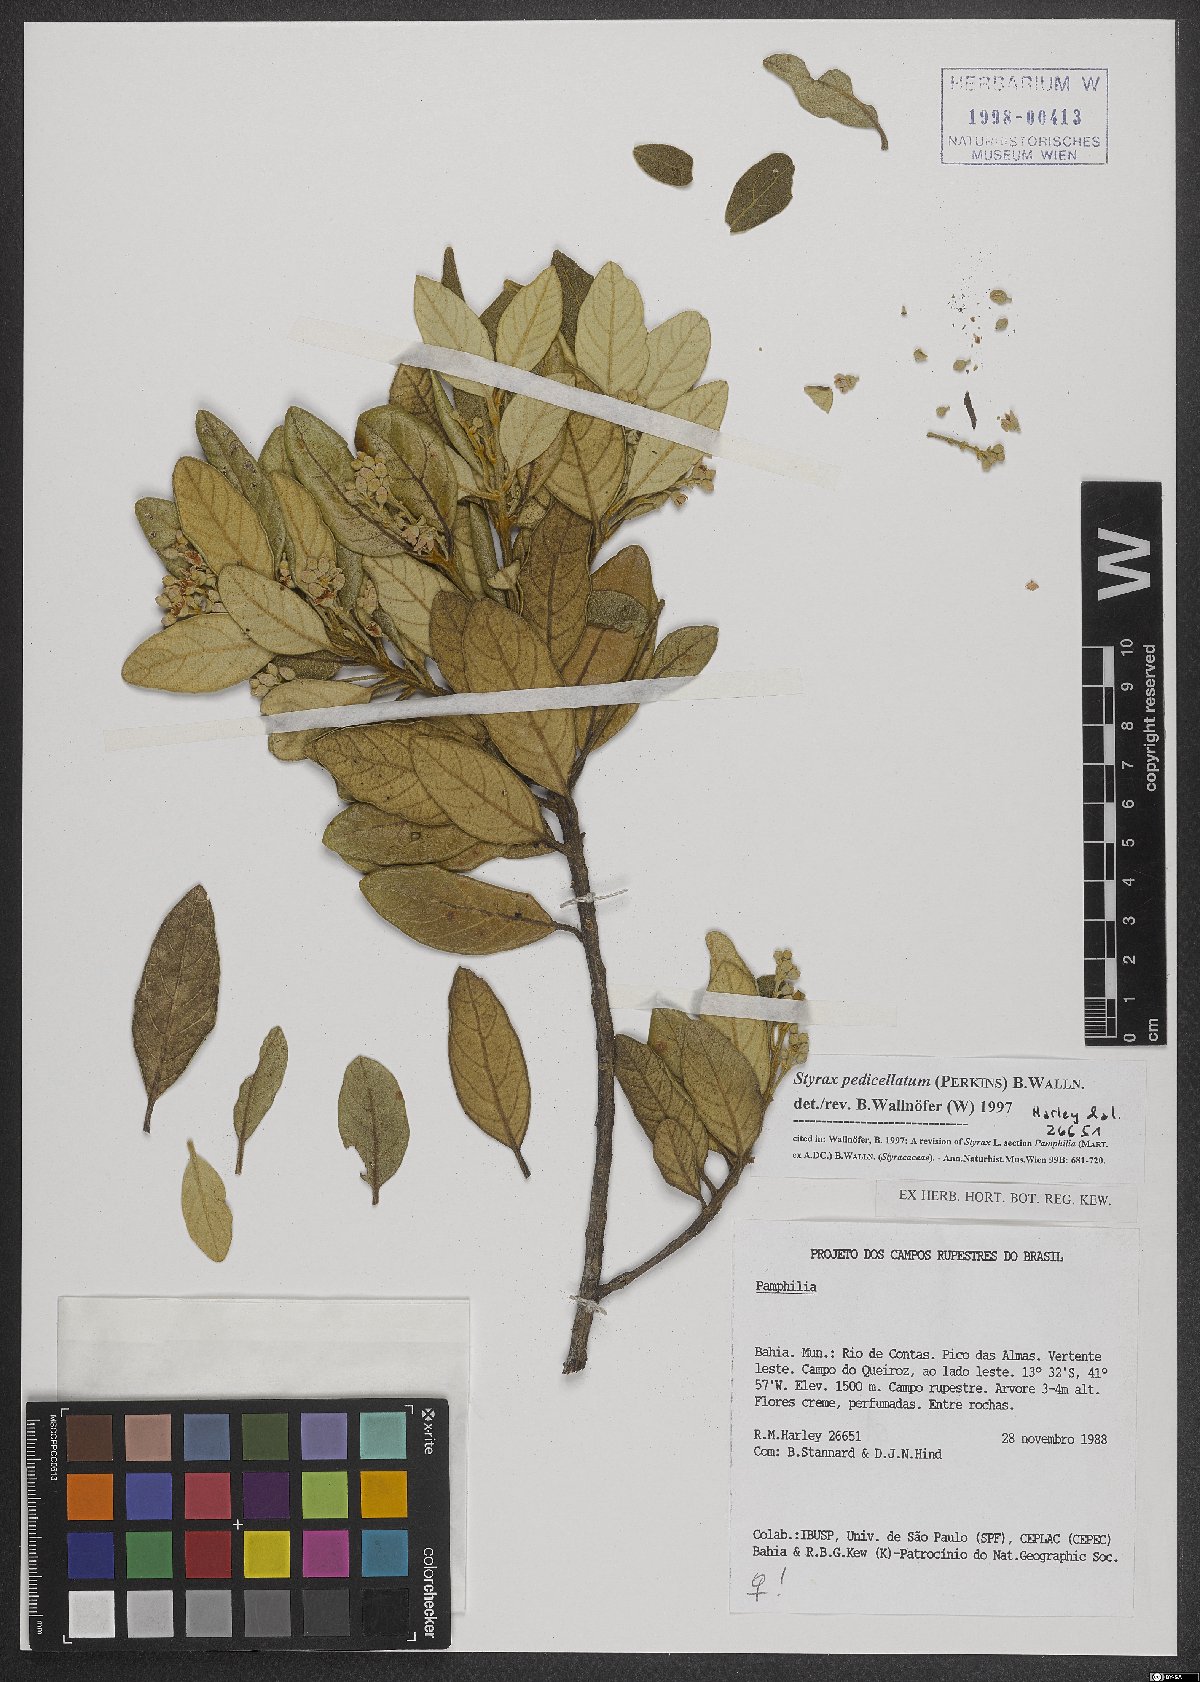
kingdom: Plantae
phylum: Tracheophyta
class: Magnoliopsida
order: Ericales
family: Styracaceae
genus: Styrax
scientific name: Styrax pedicellatus
